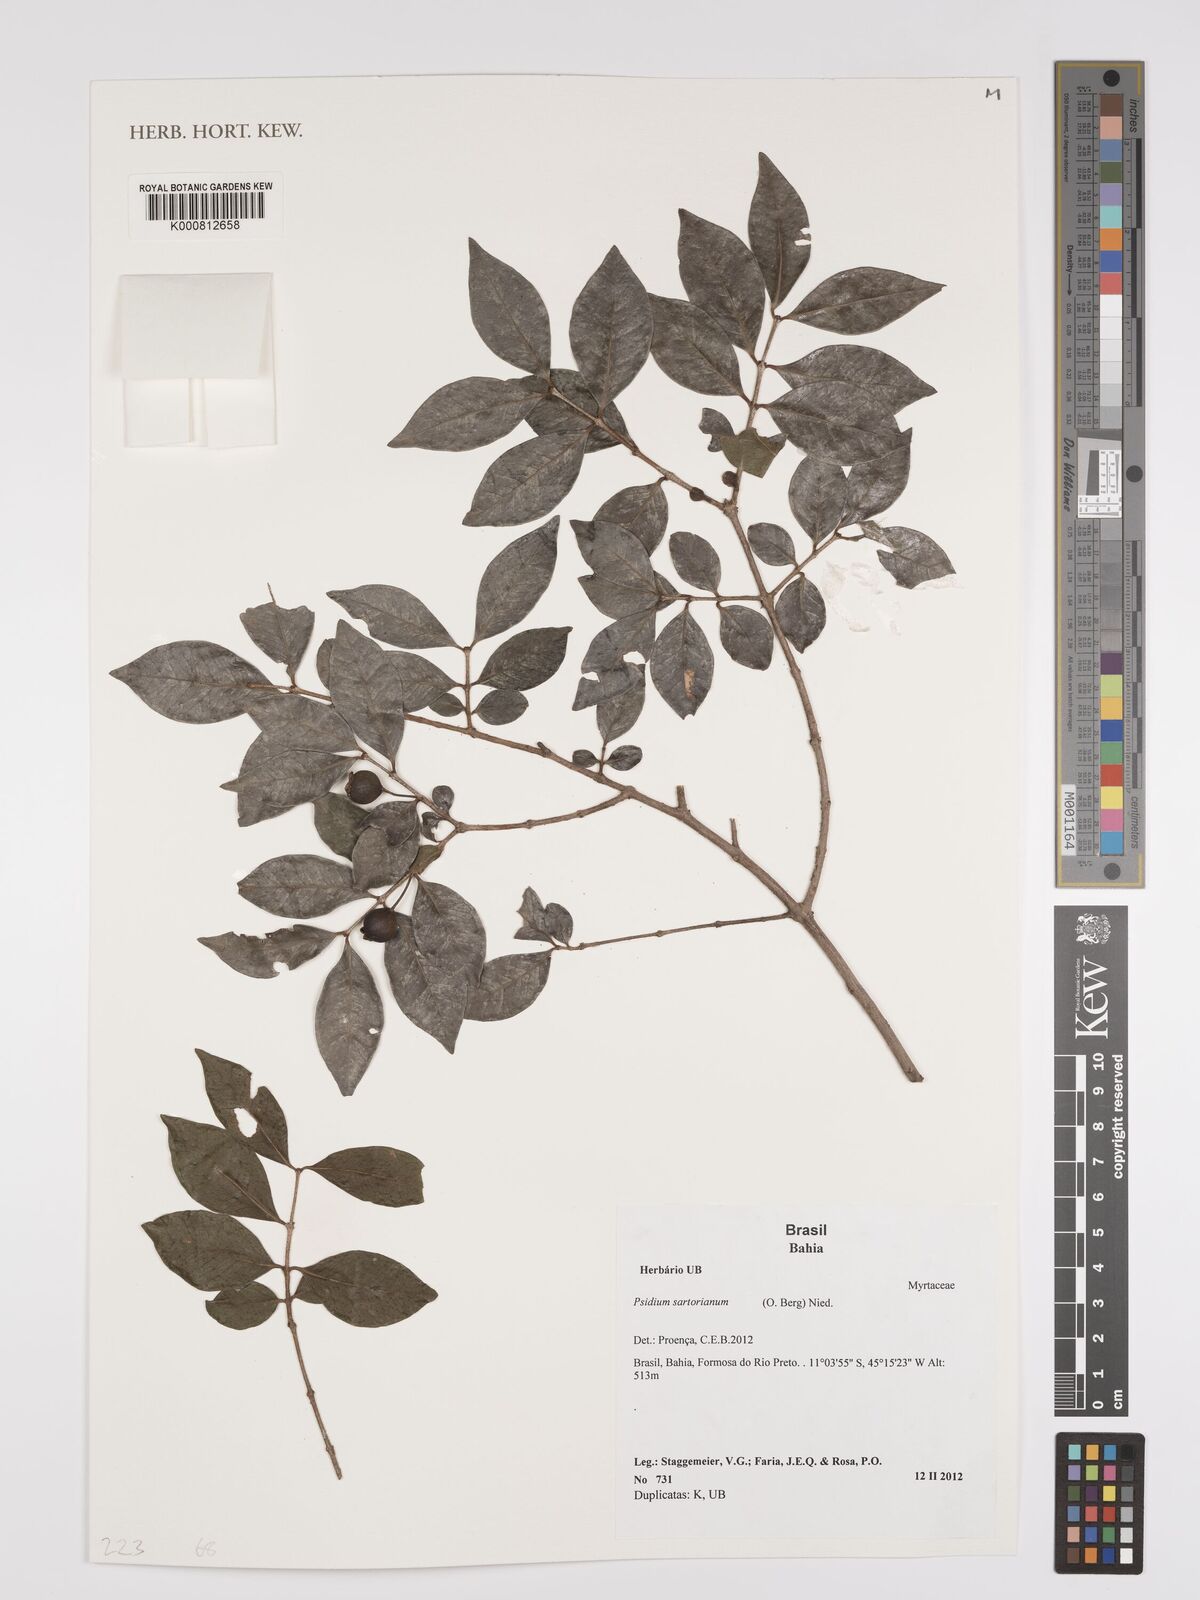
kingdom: Plantae
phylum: Tracheophyta
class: Magnoliopsida
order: Myrtales
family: Myrtaceae
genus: Psidium
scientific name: Psidium sartorianum
